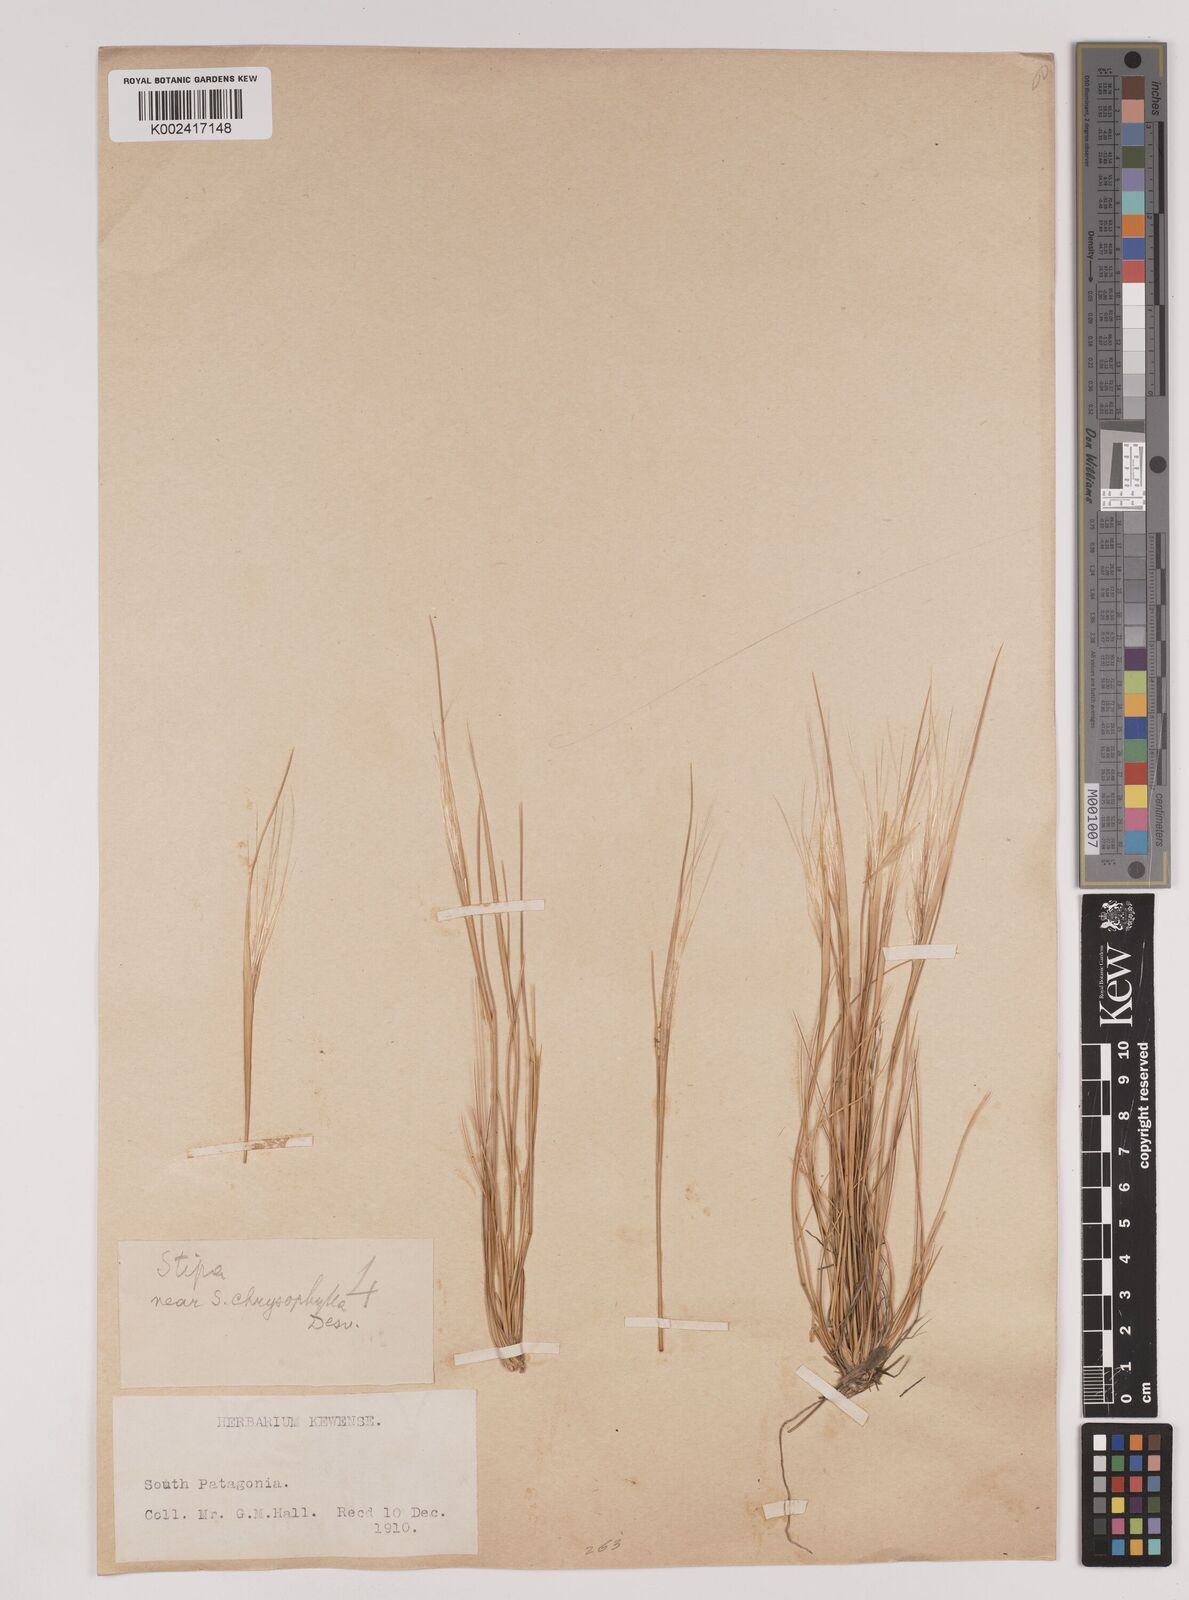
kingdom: Plantae
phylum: Tracheophyta
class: Liliopsida
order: Poales
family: Poaceae
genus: Stipa
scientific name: Stipa
